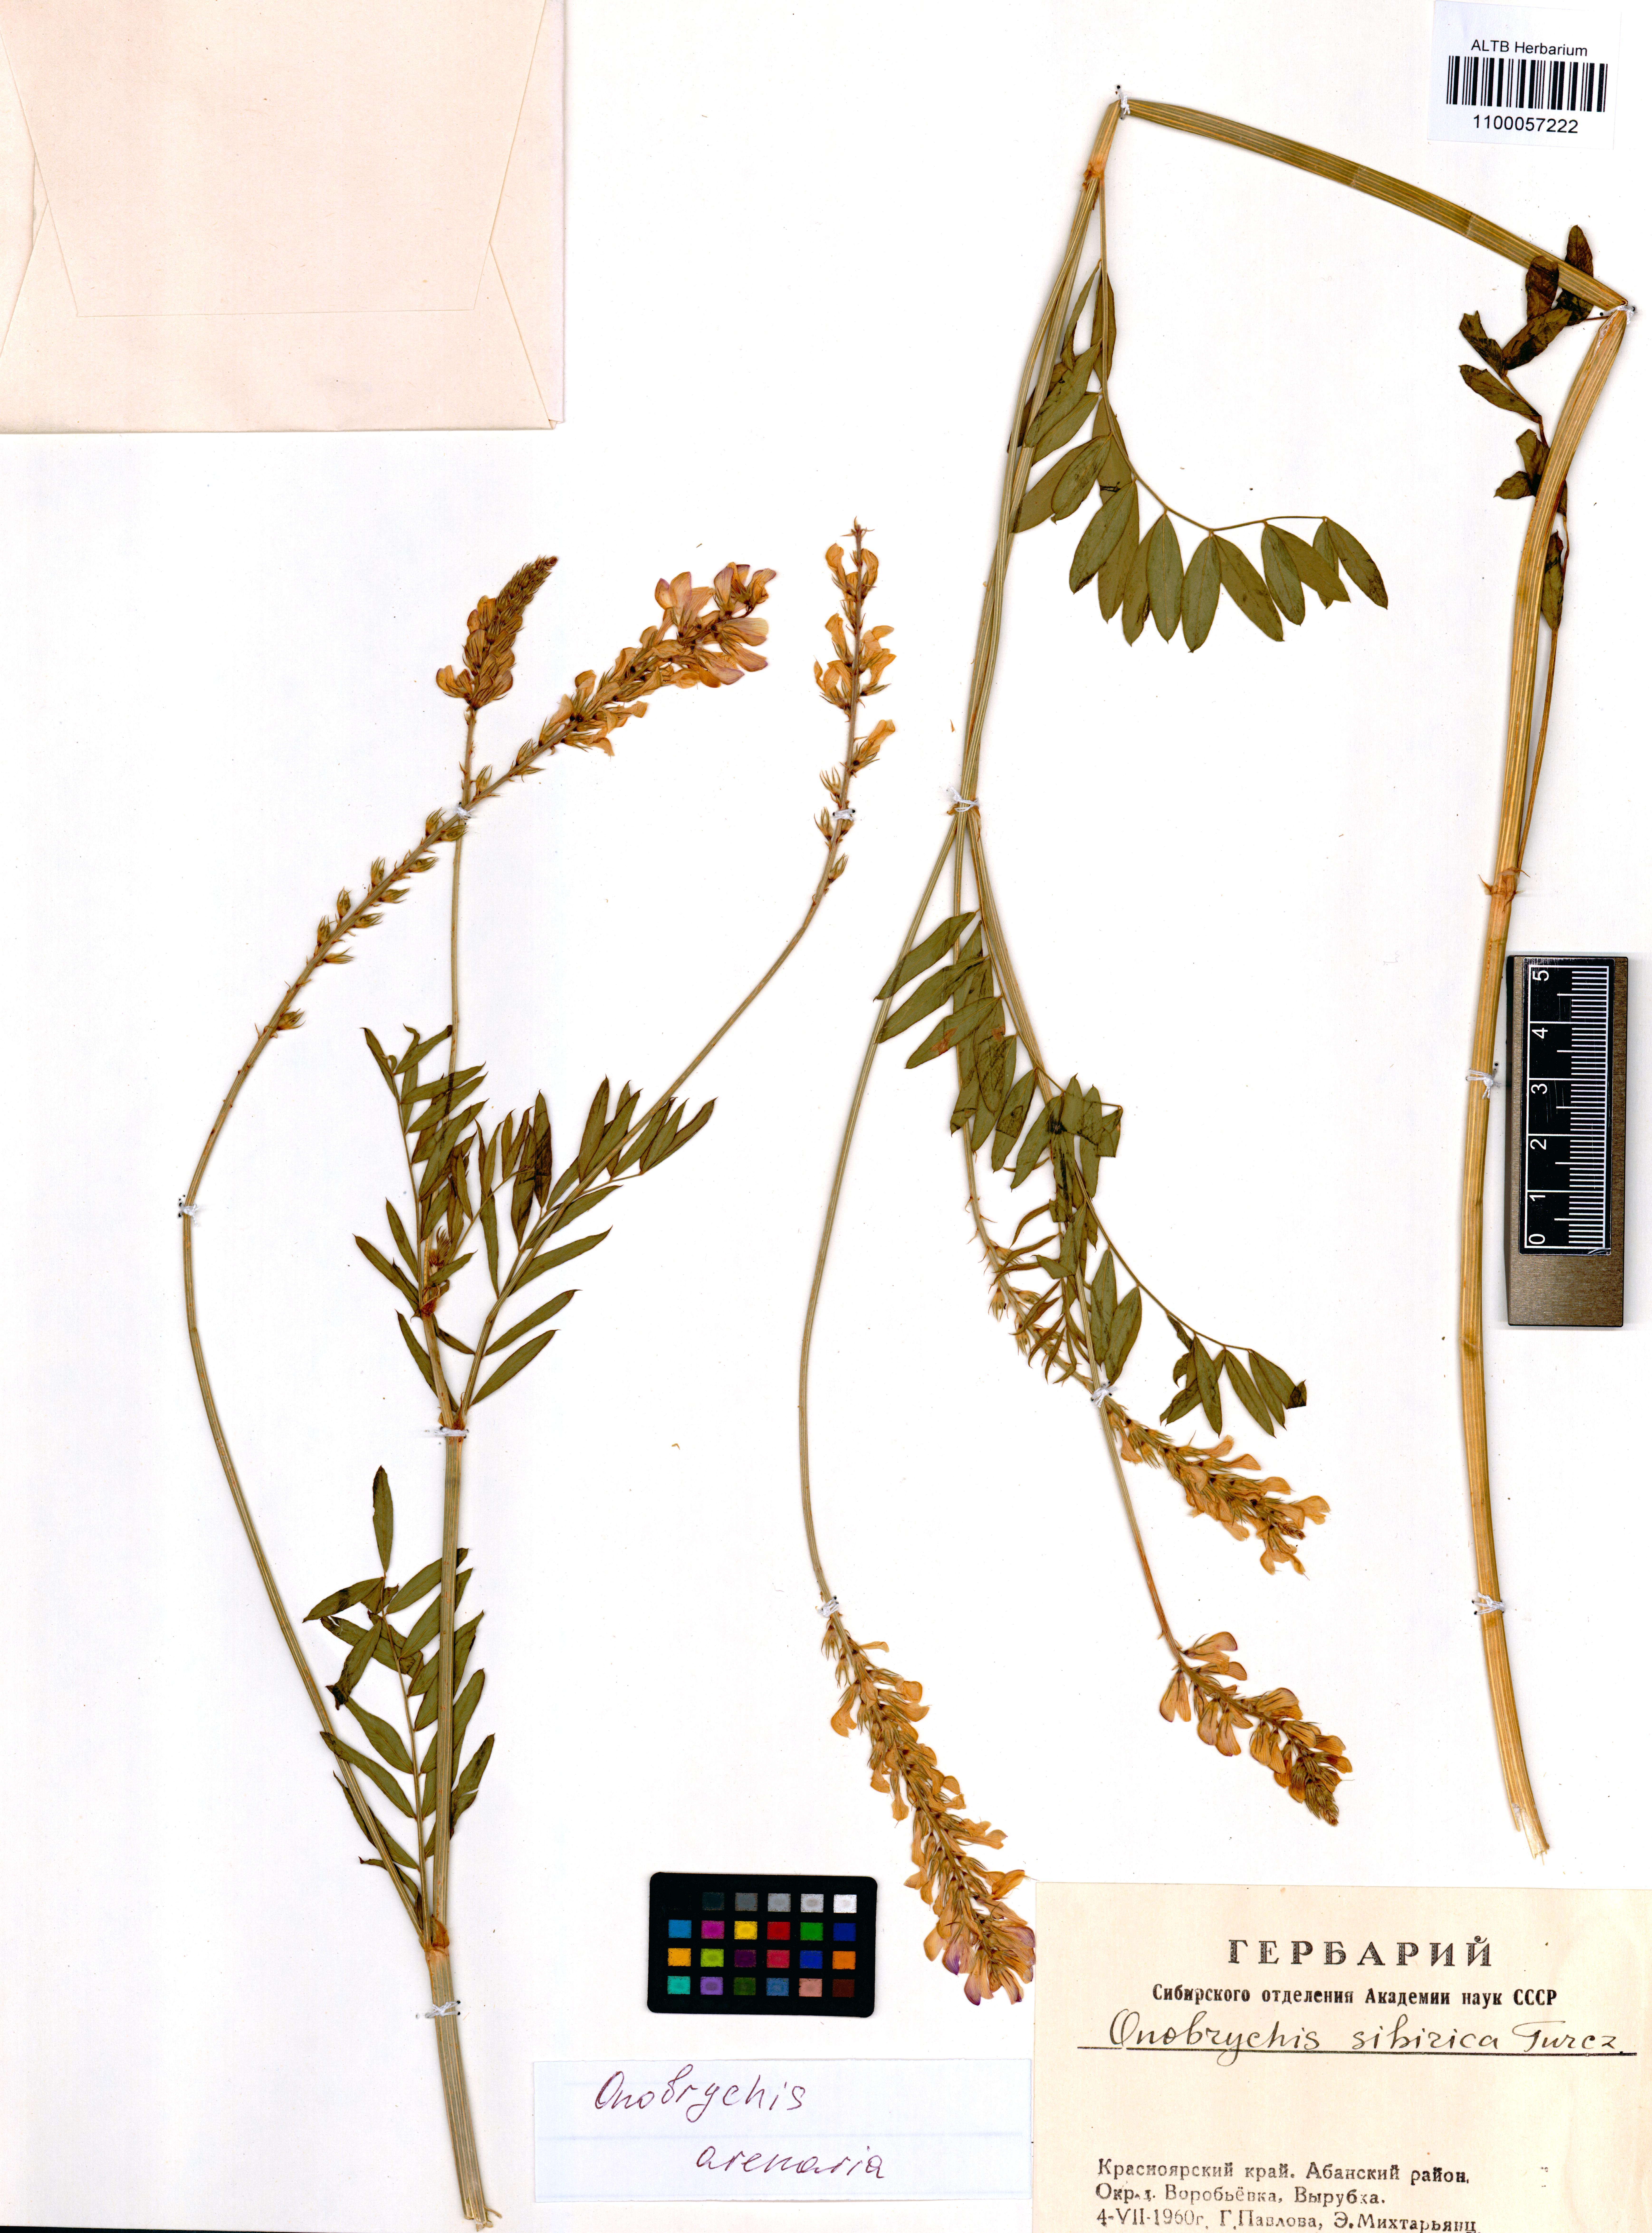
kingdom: Plantae
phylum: Tracheophyta
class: Magnoliopsida
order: Fabales
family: Fabaceae
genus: Onobrychis
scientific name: Onobrychis arenaria
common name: Sand esparcet
